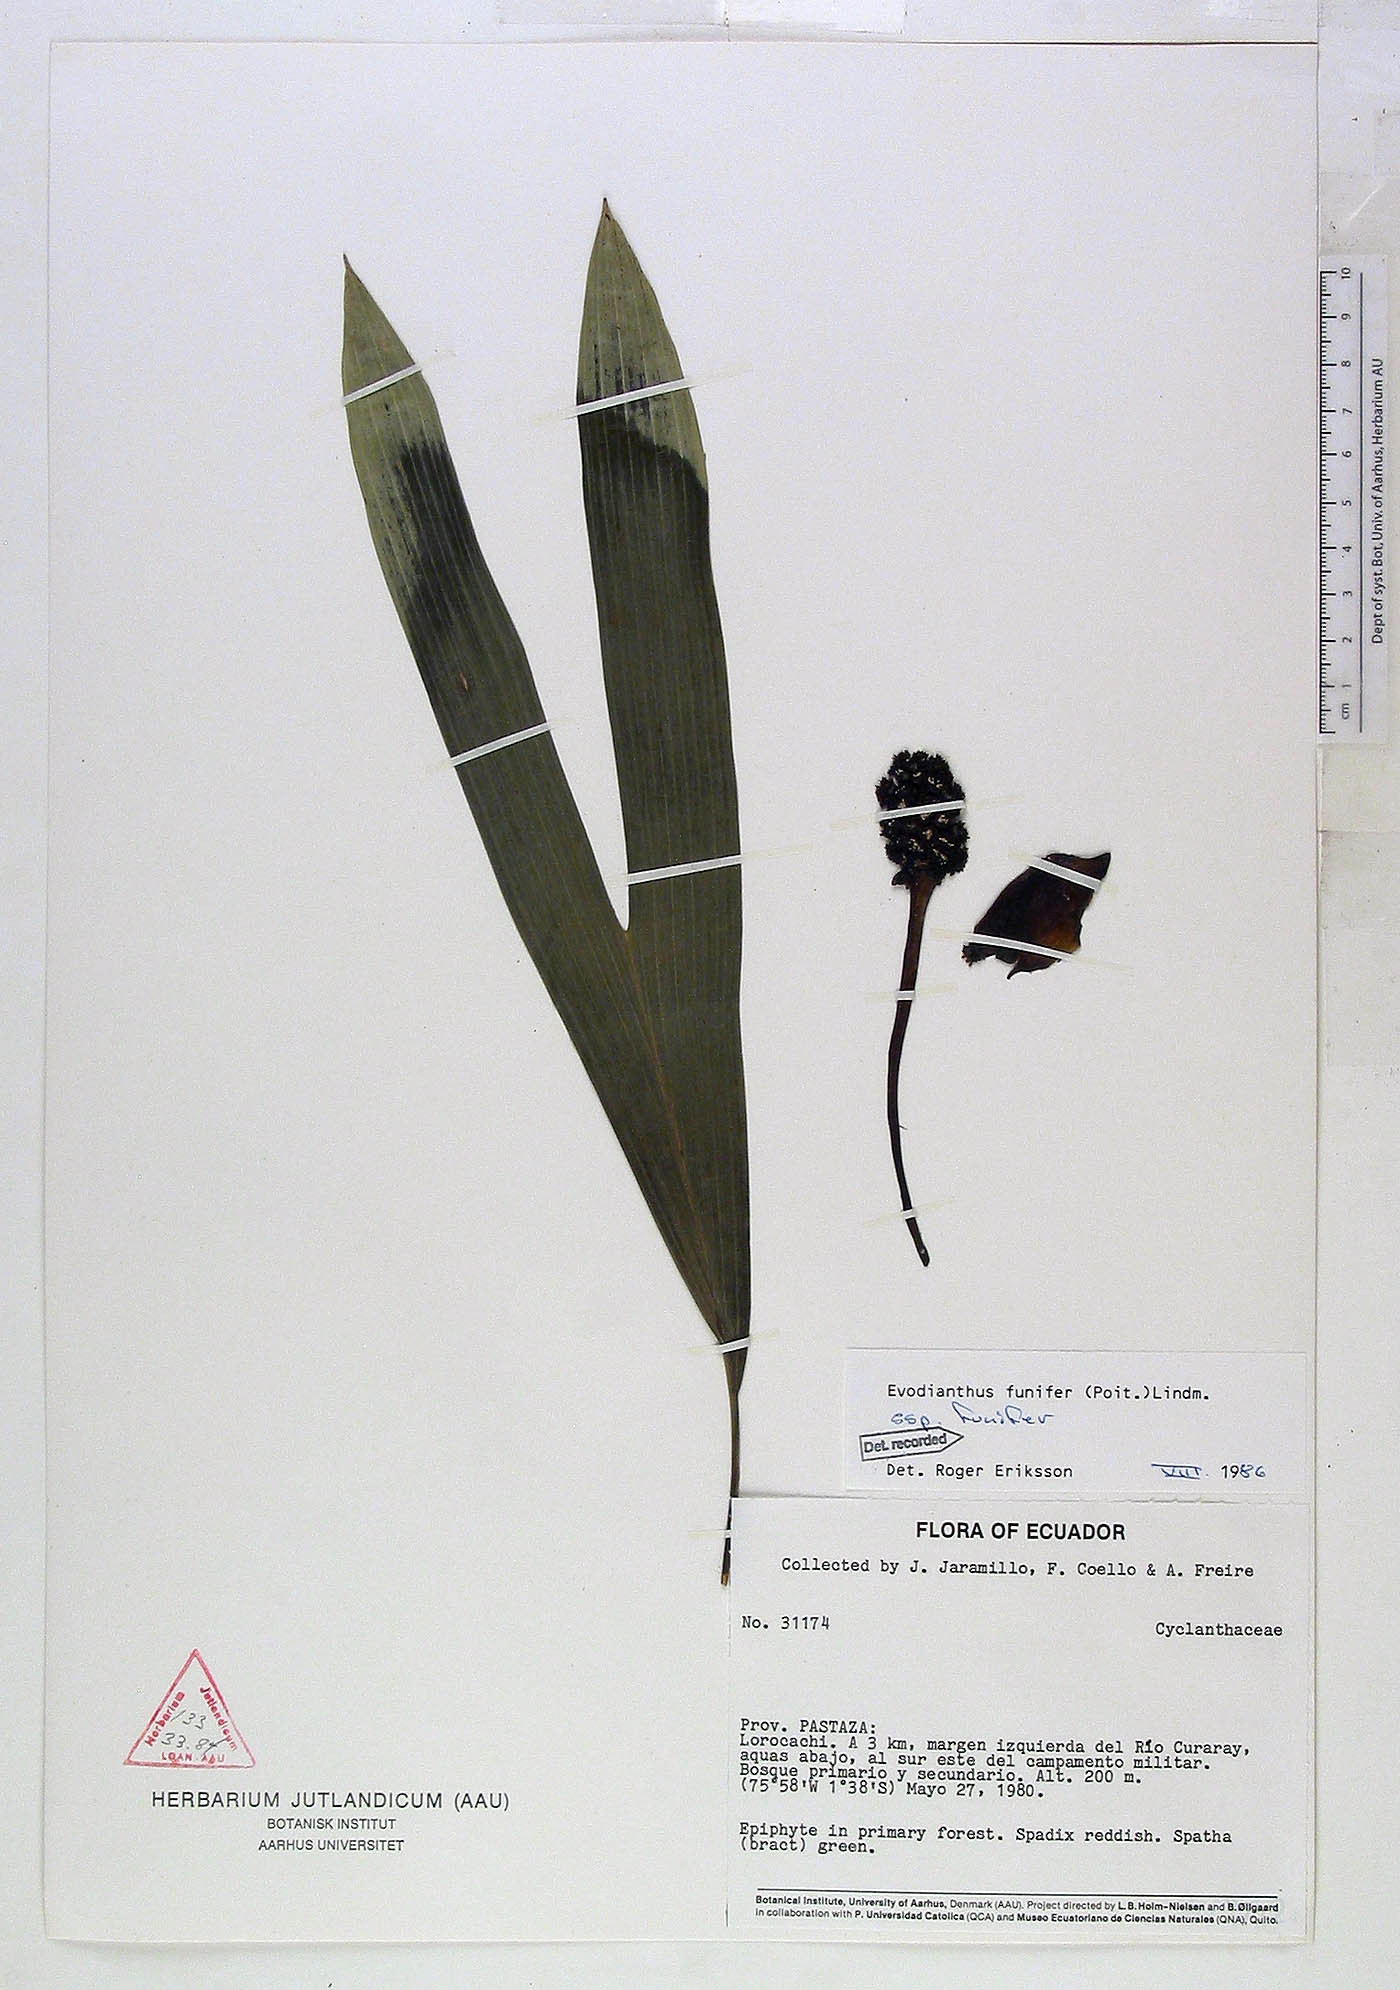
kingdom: Plantae
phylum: Tracheophyta
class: Liliopsida
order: Pandanales
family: Cyclanthaceae
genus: Evodianthus
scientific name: Evodianthus funifer
